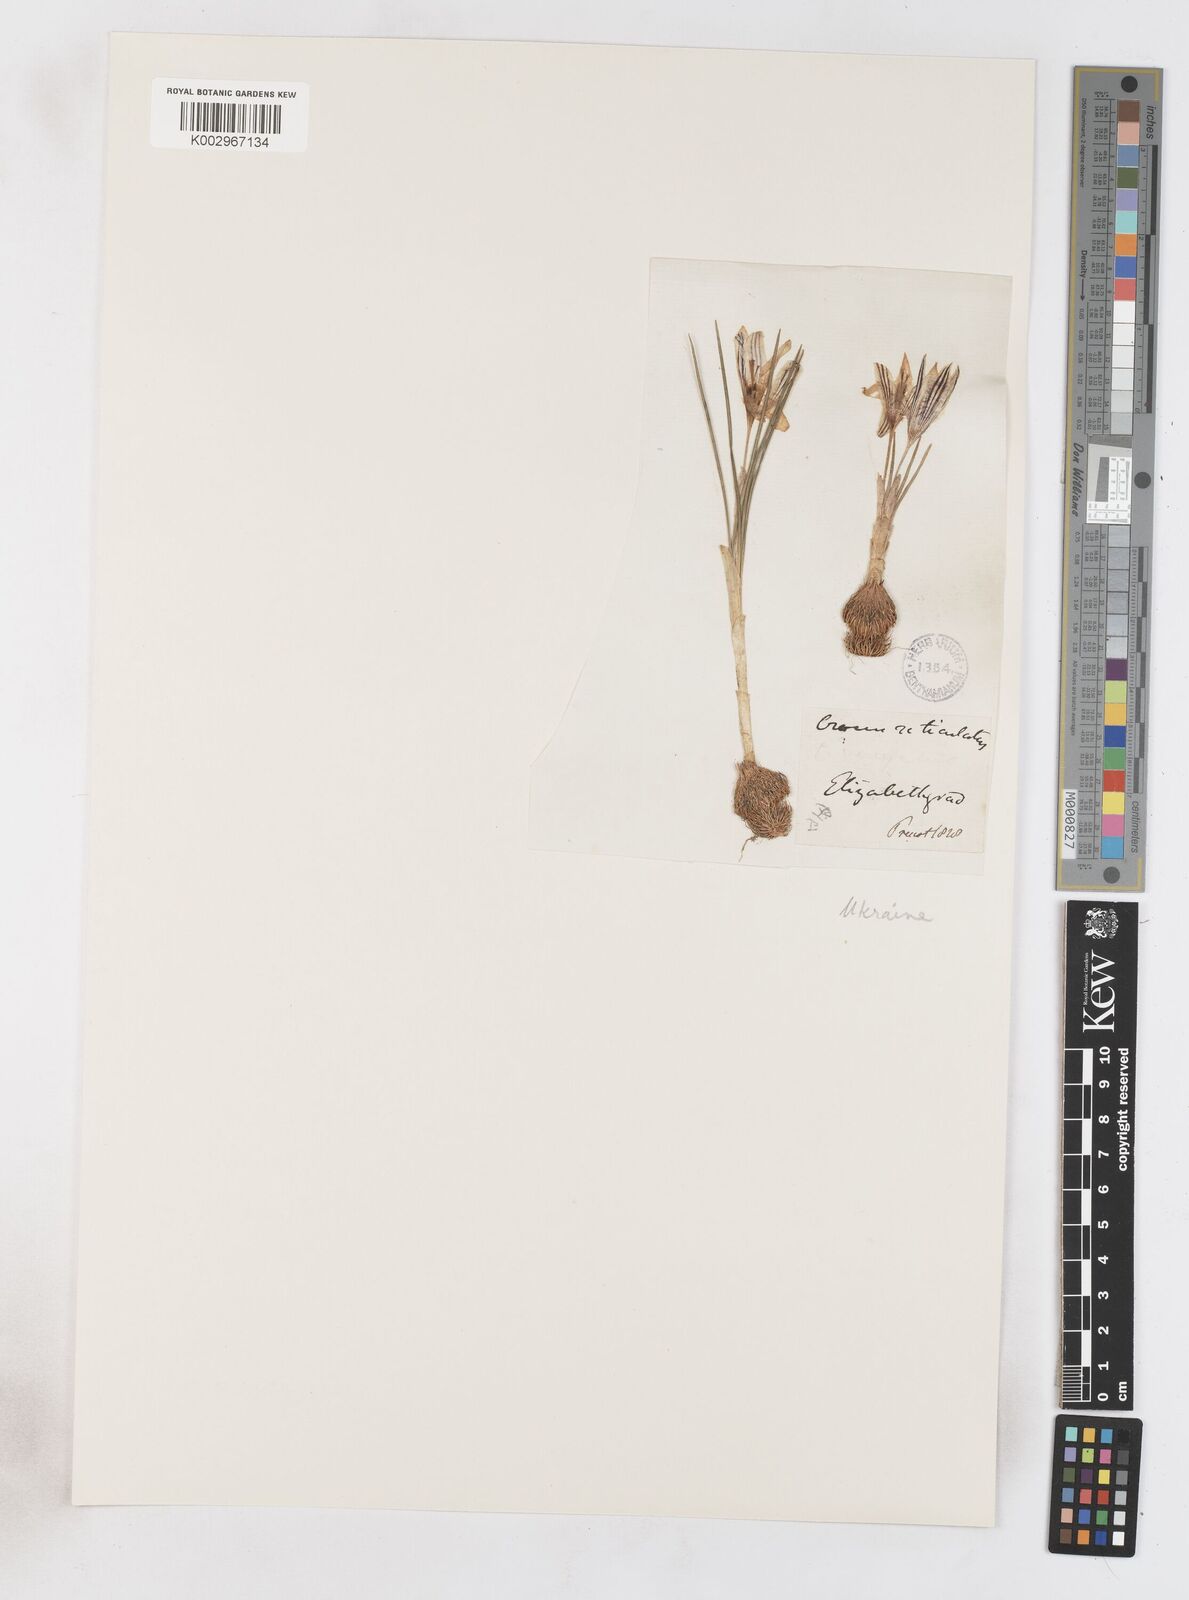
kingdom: Plantae
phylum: Tracheophyta
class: Liliopsida
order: Asparagales
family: Iridaceae
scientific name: Iridaceae
